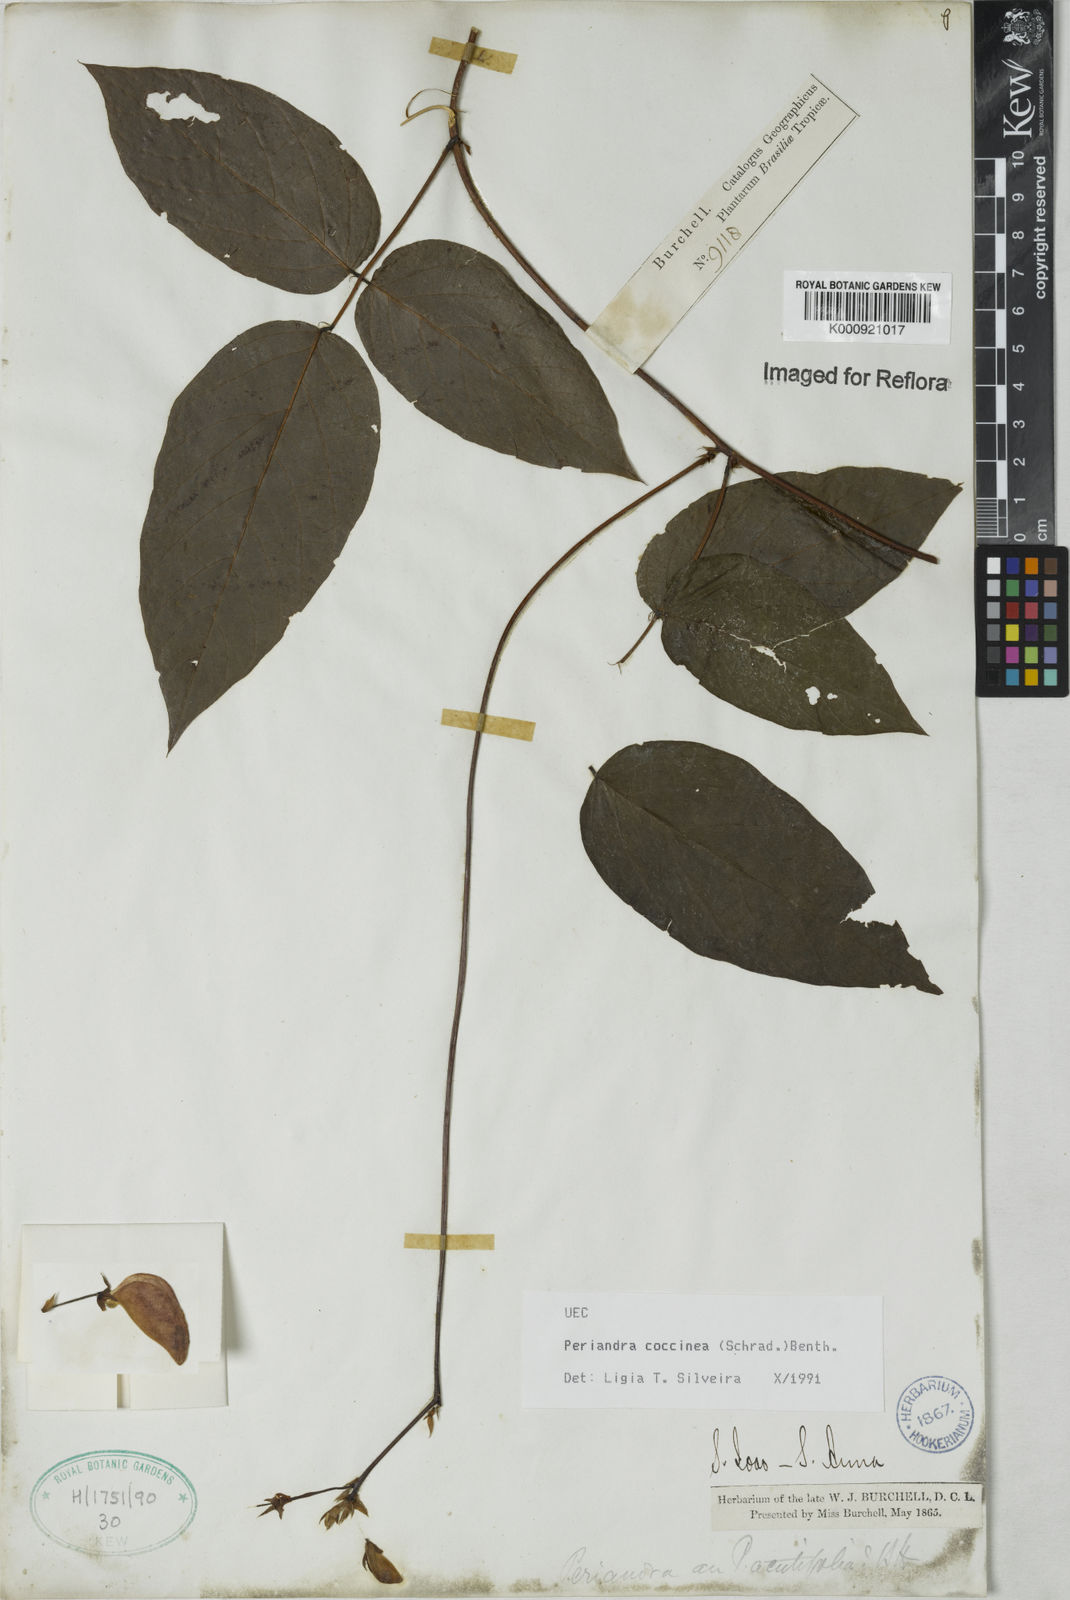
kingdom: Plantae
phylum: Tracheophyta
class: Magnoliopsida
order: Fabales
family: Fabaceae
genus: Periandra
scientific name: Periandra coccinea
